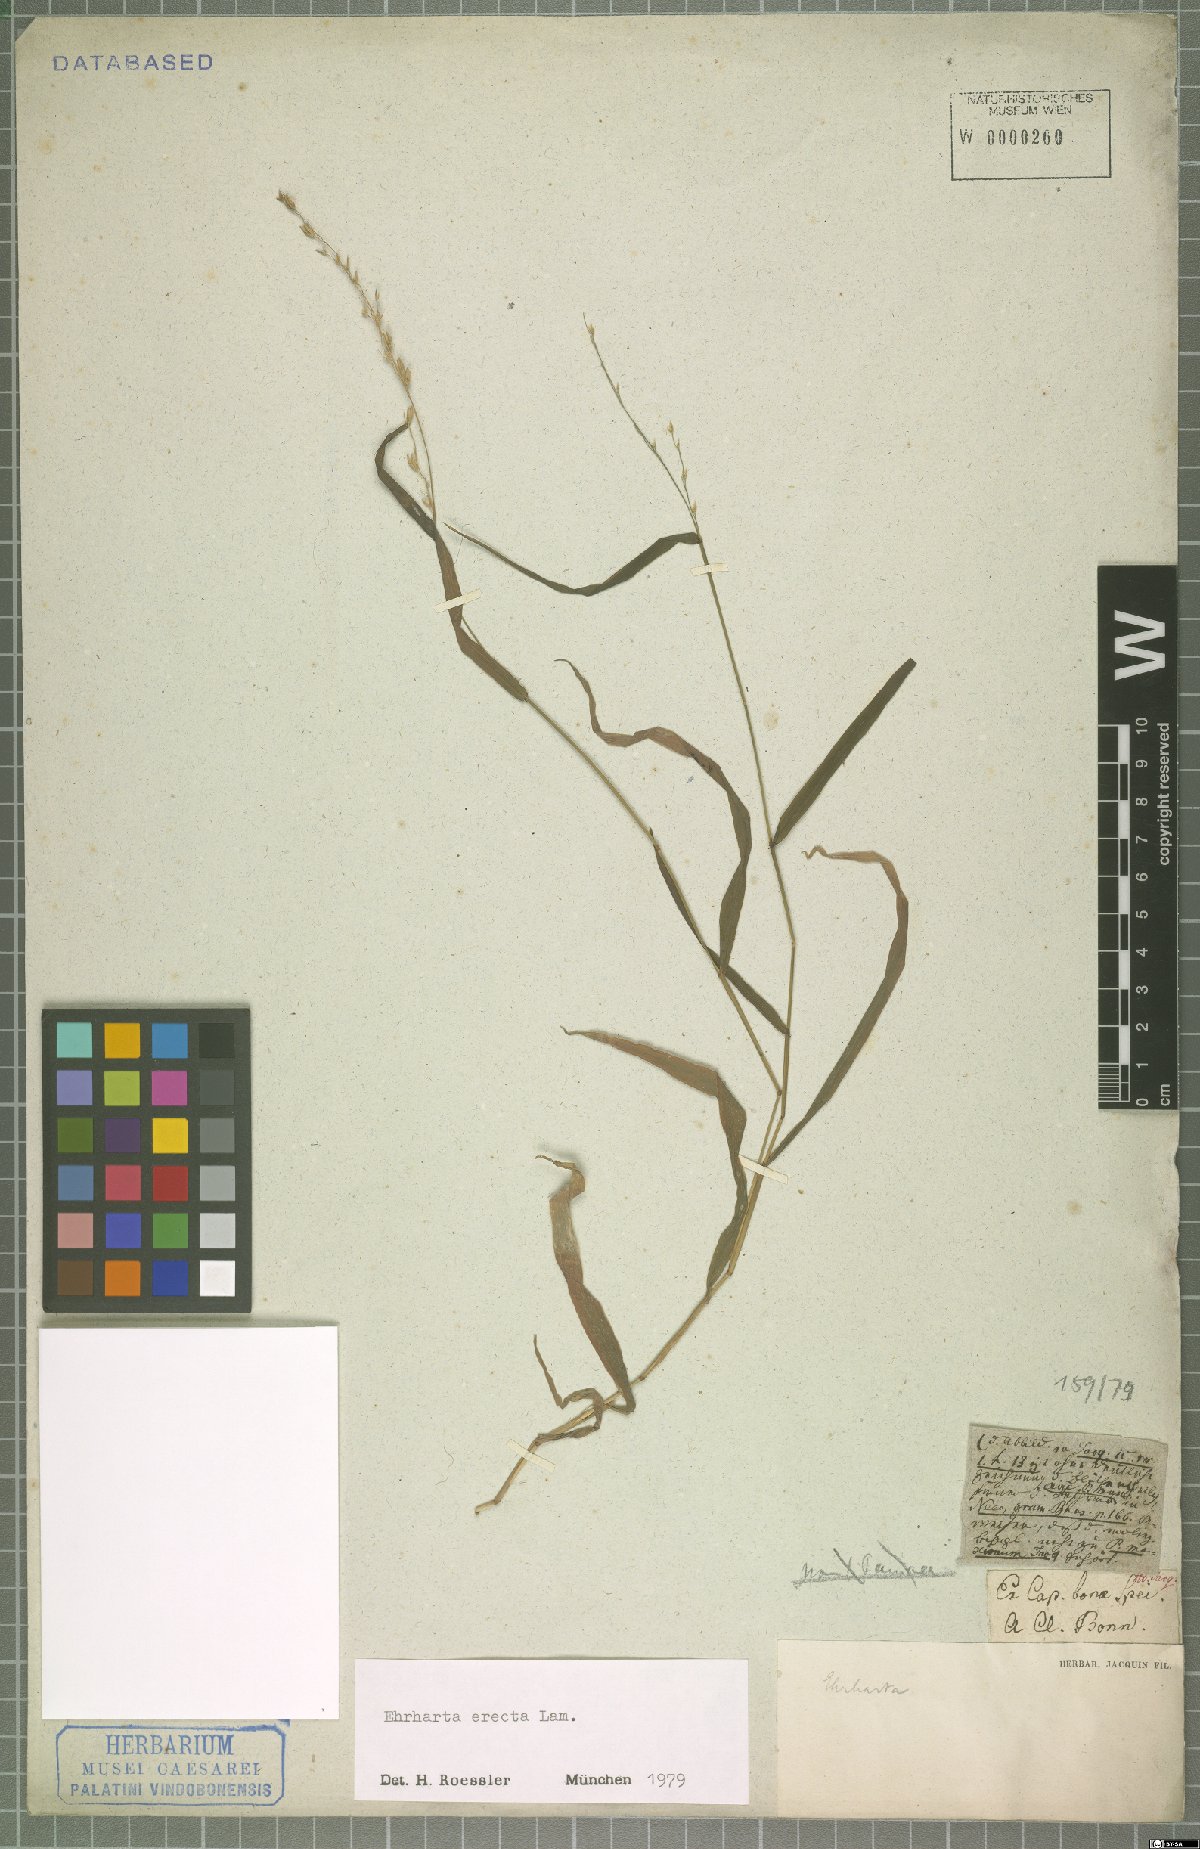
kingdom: Plantae
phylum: Tracheophyta
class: Liliopsida
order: Poales
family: Poaceae
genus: Ehrharta
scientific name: Ehrharta erecta
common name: Panic veldtgrass
